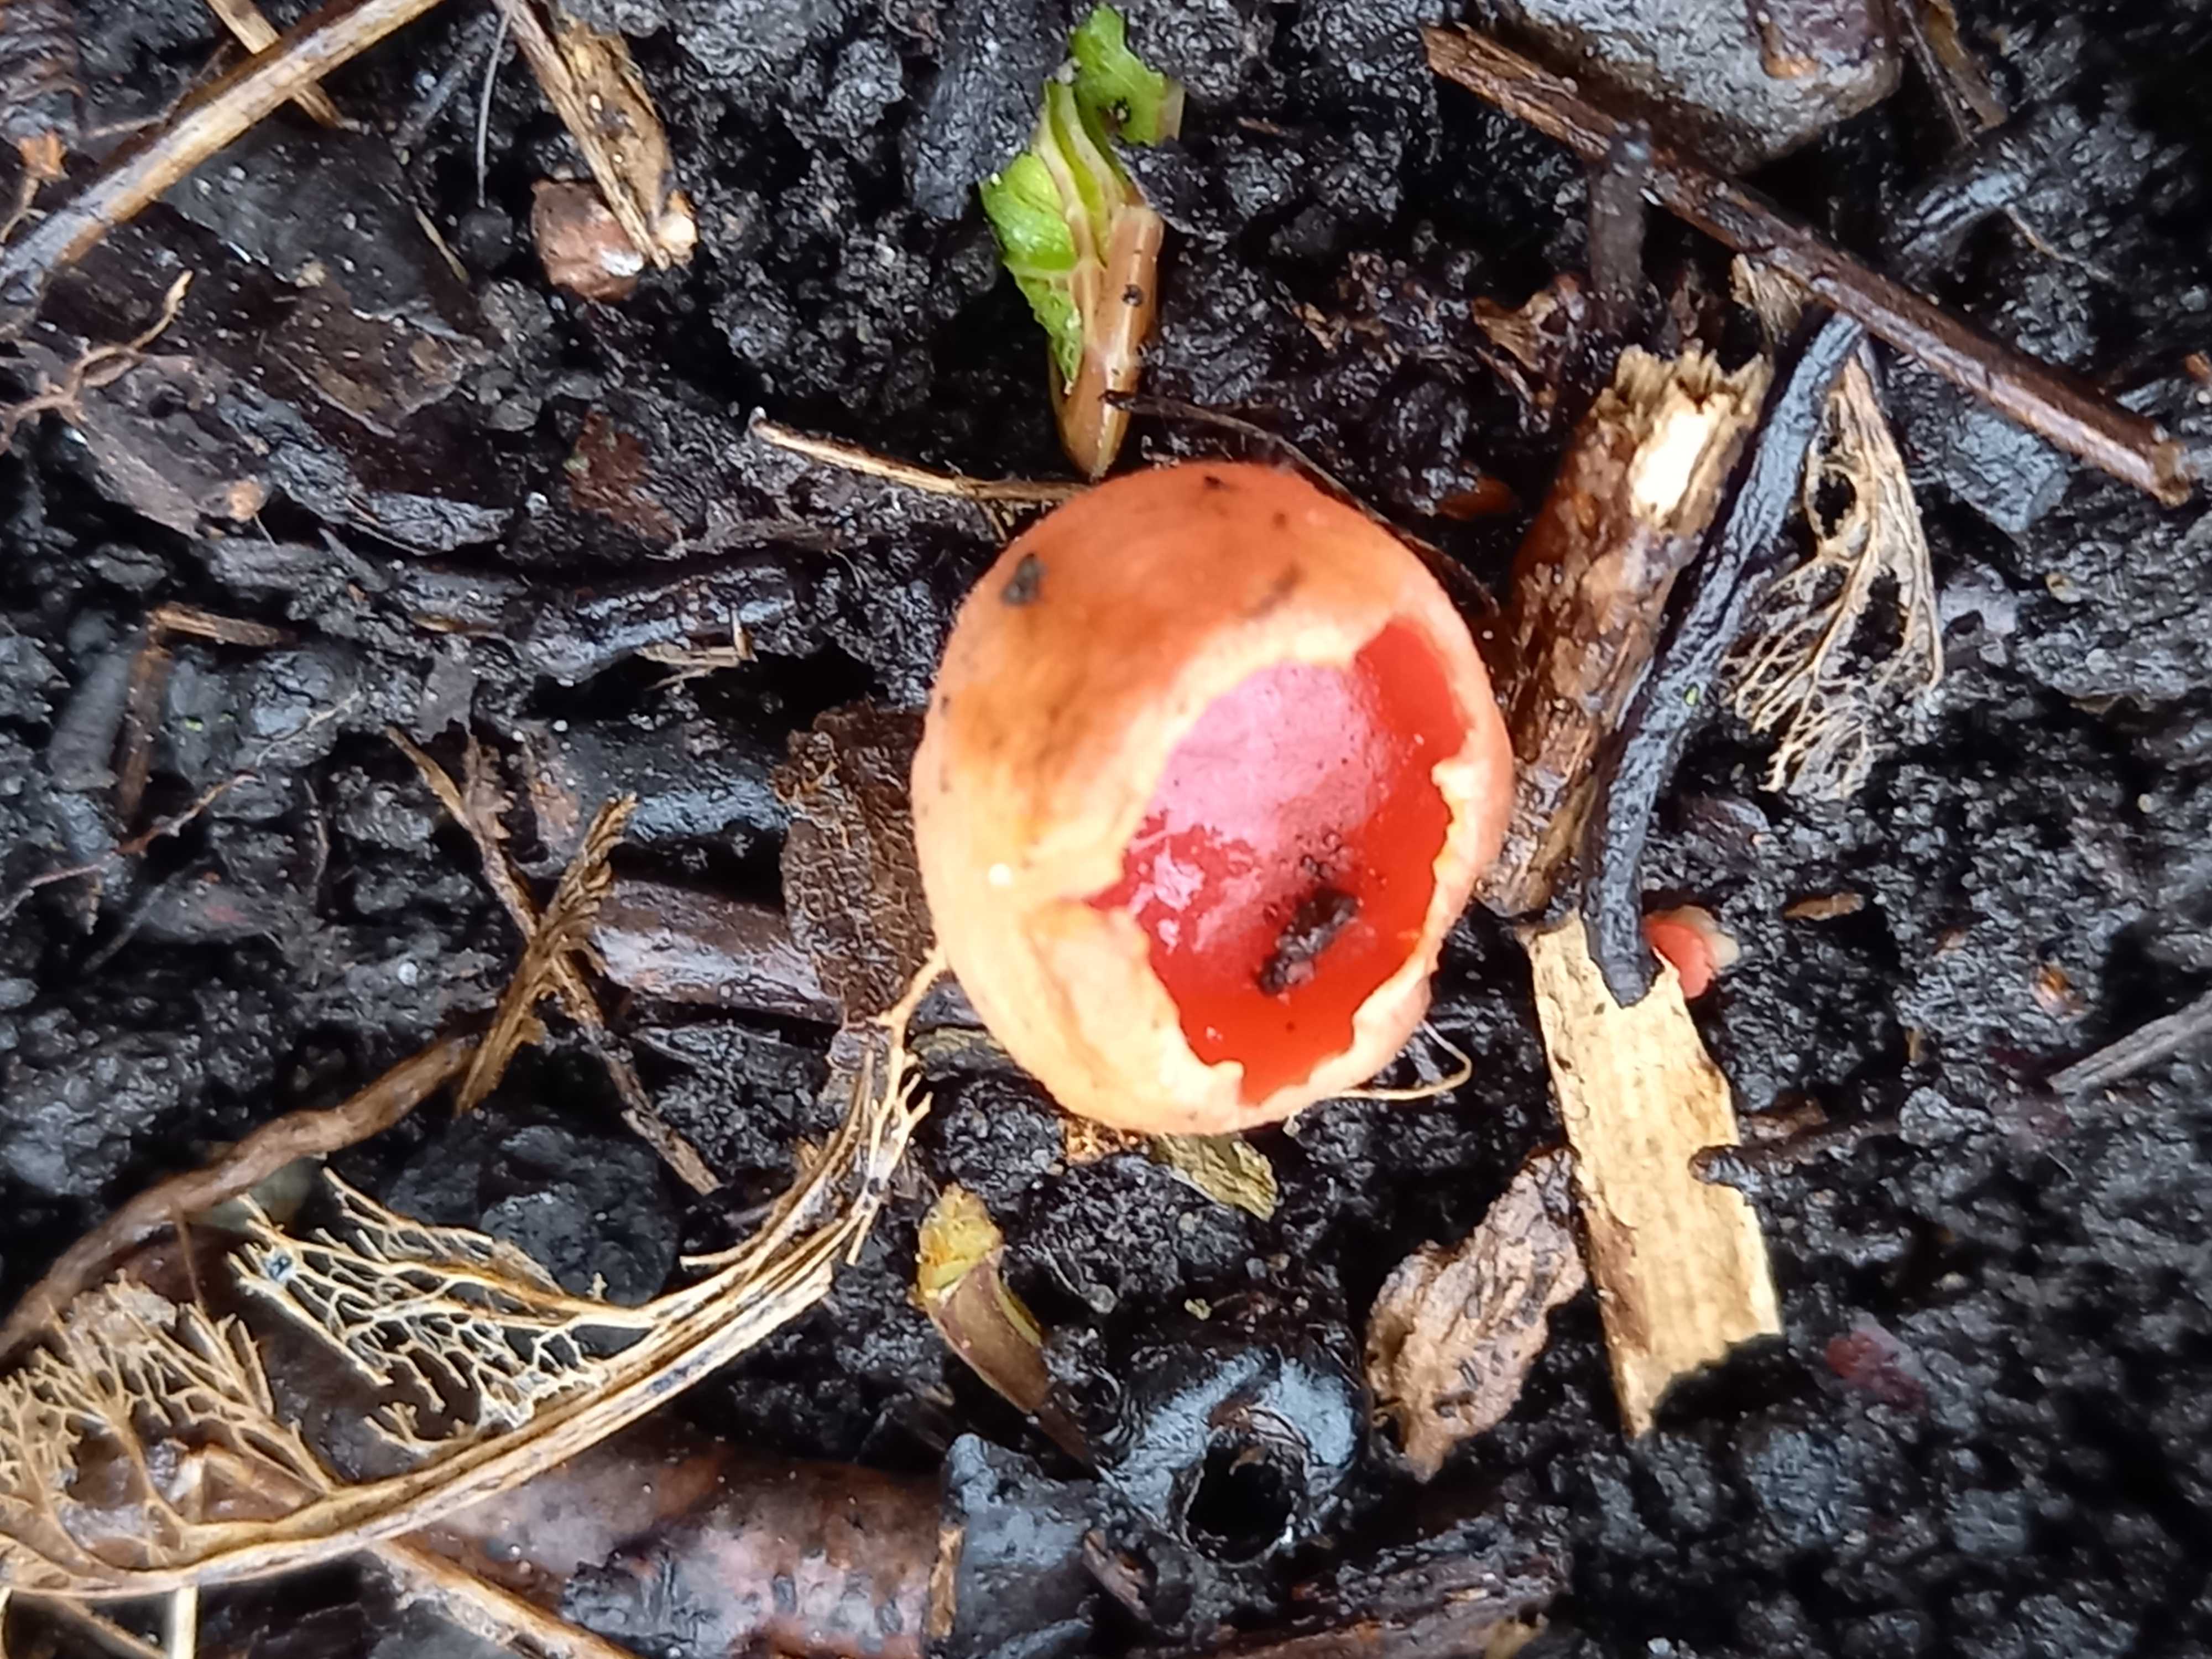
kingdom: Fungi
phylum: Ascomycota
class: Pezizomycetes
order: Pezizales
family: Sarcoscyphaceae
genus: Sarcoscypha
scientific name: Sarcoscypha austriaca
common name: krølhåret pragtbæger
